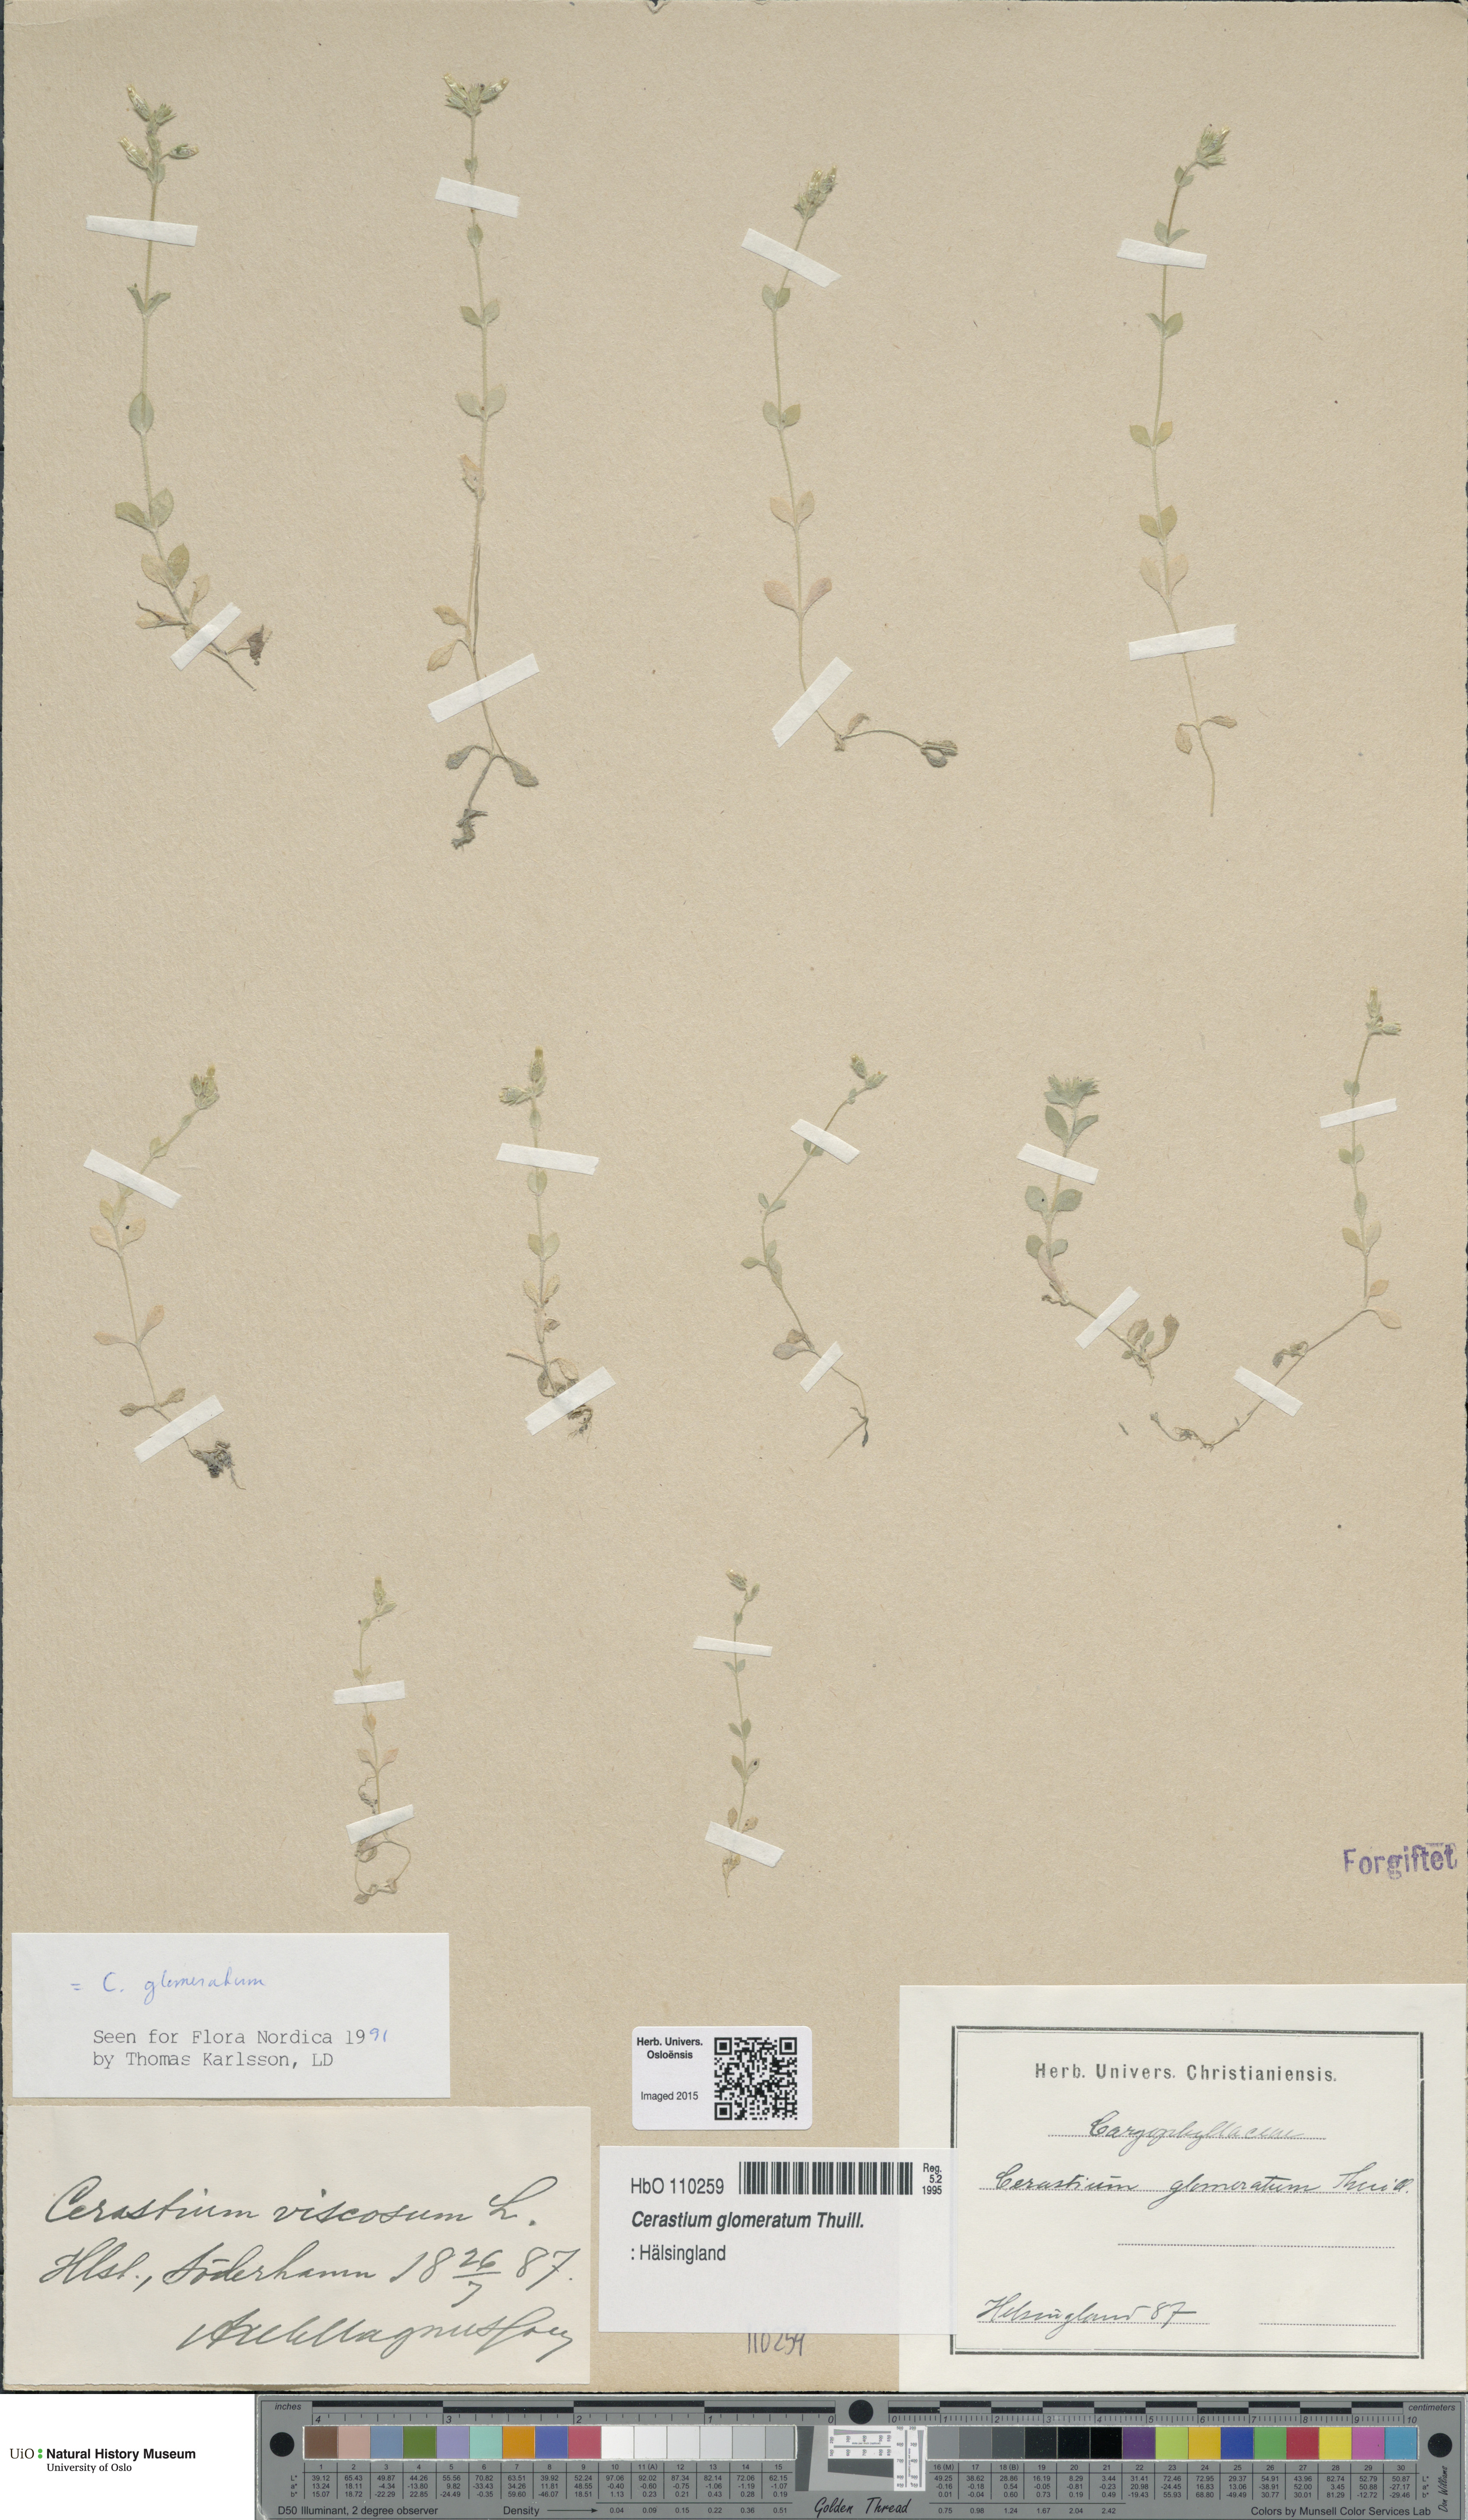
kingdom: Plantae
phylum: Tracheophyta
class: Magnoliopsida
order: Caryophyllales
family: Caryophyllaceae
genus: Cerastium
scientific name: Cerastium glomeratum
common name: Sticky chickweed
